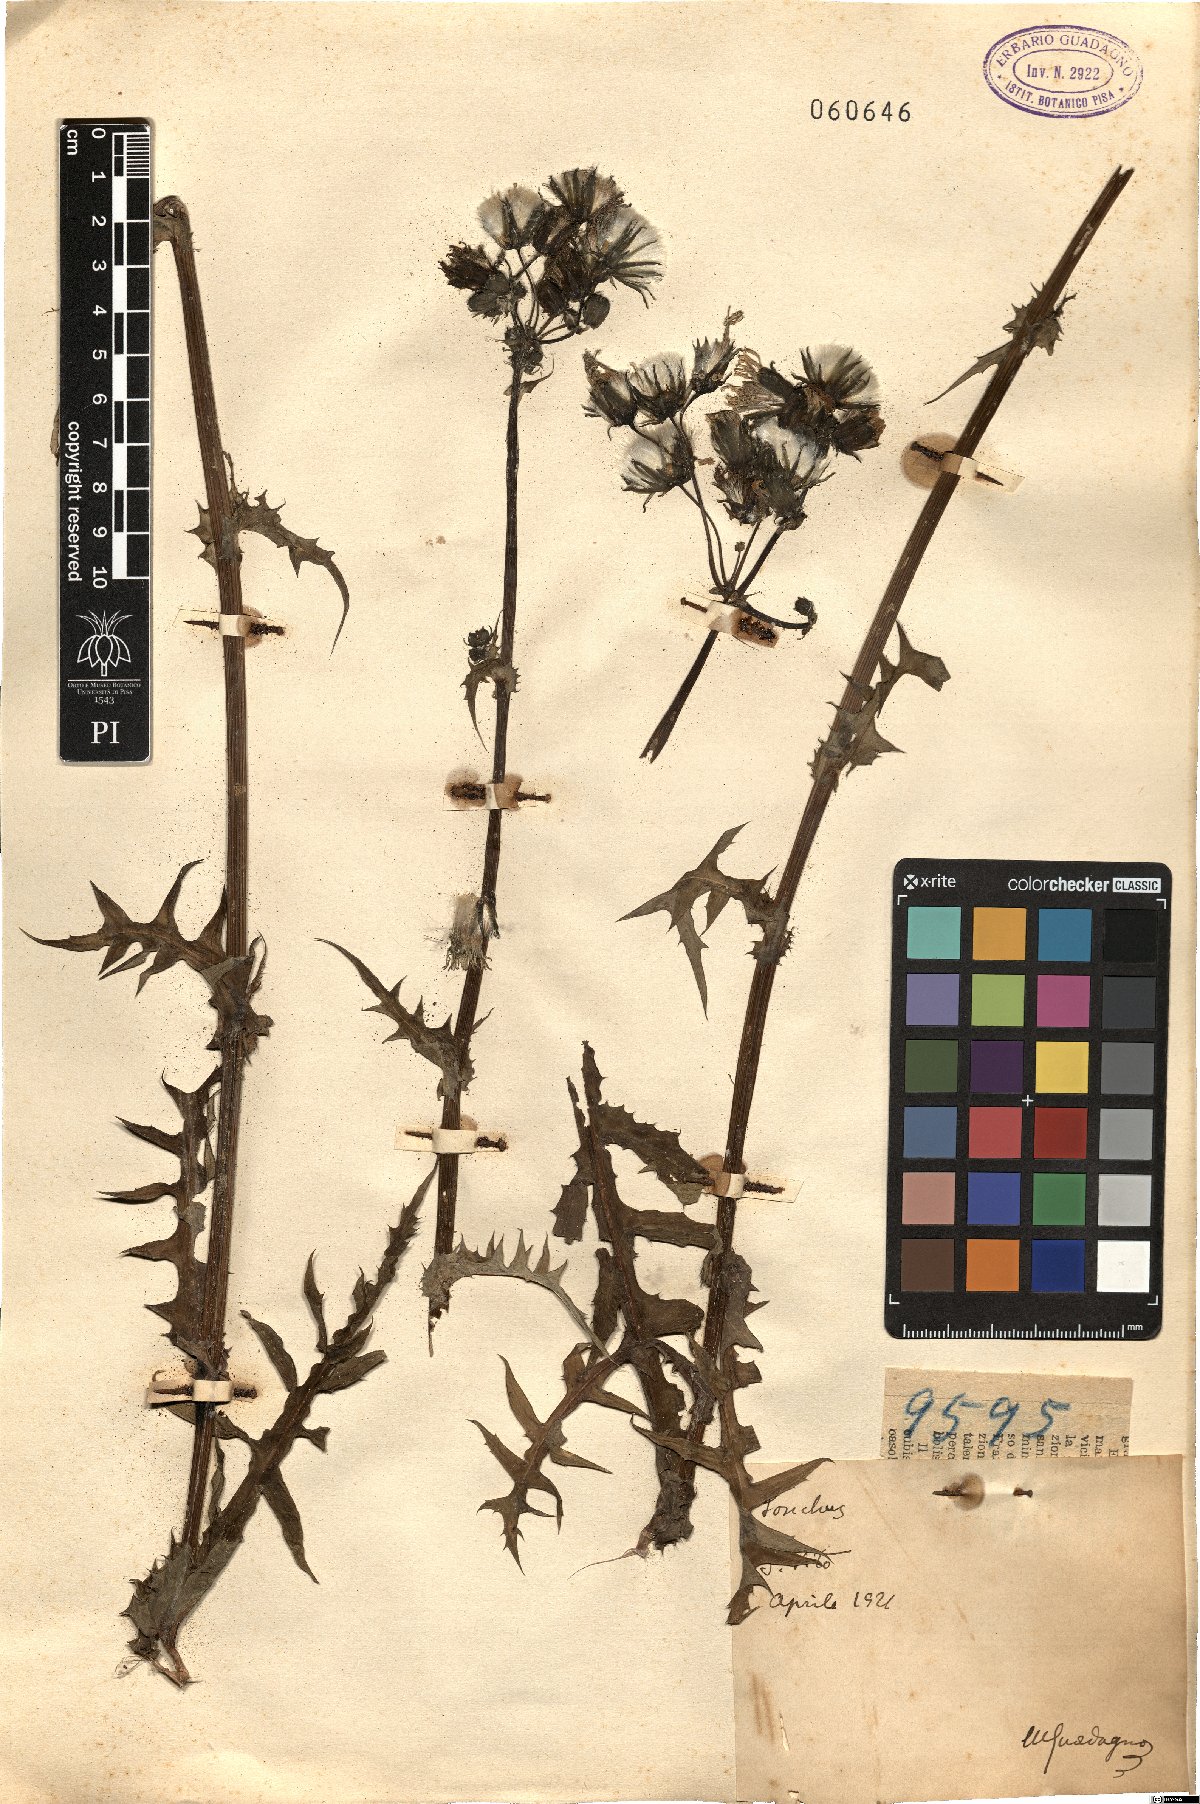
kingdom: Plantae
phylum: Tracheophyta
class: Magnoliopsida
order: Asterales
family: Asteraceae
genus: Sonchus
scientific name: Sonchus
